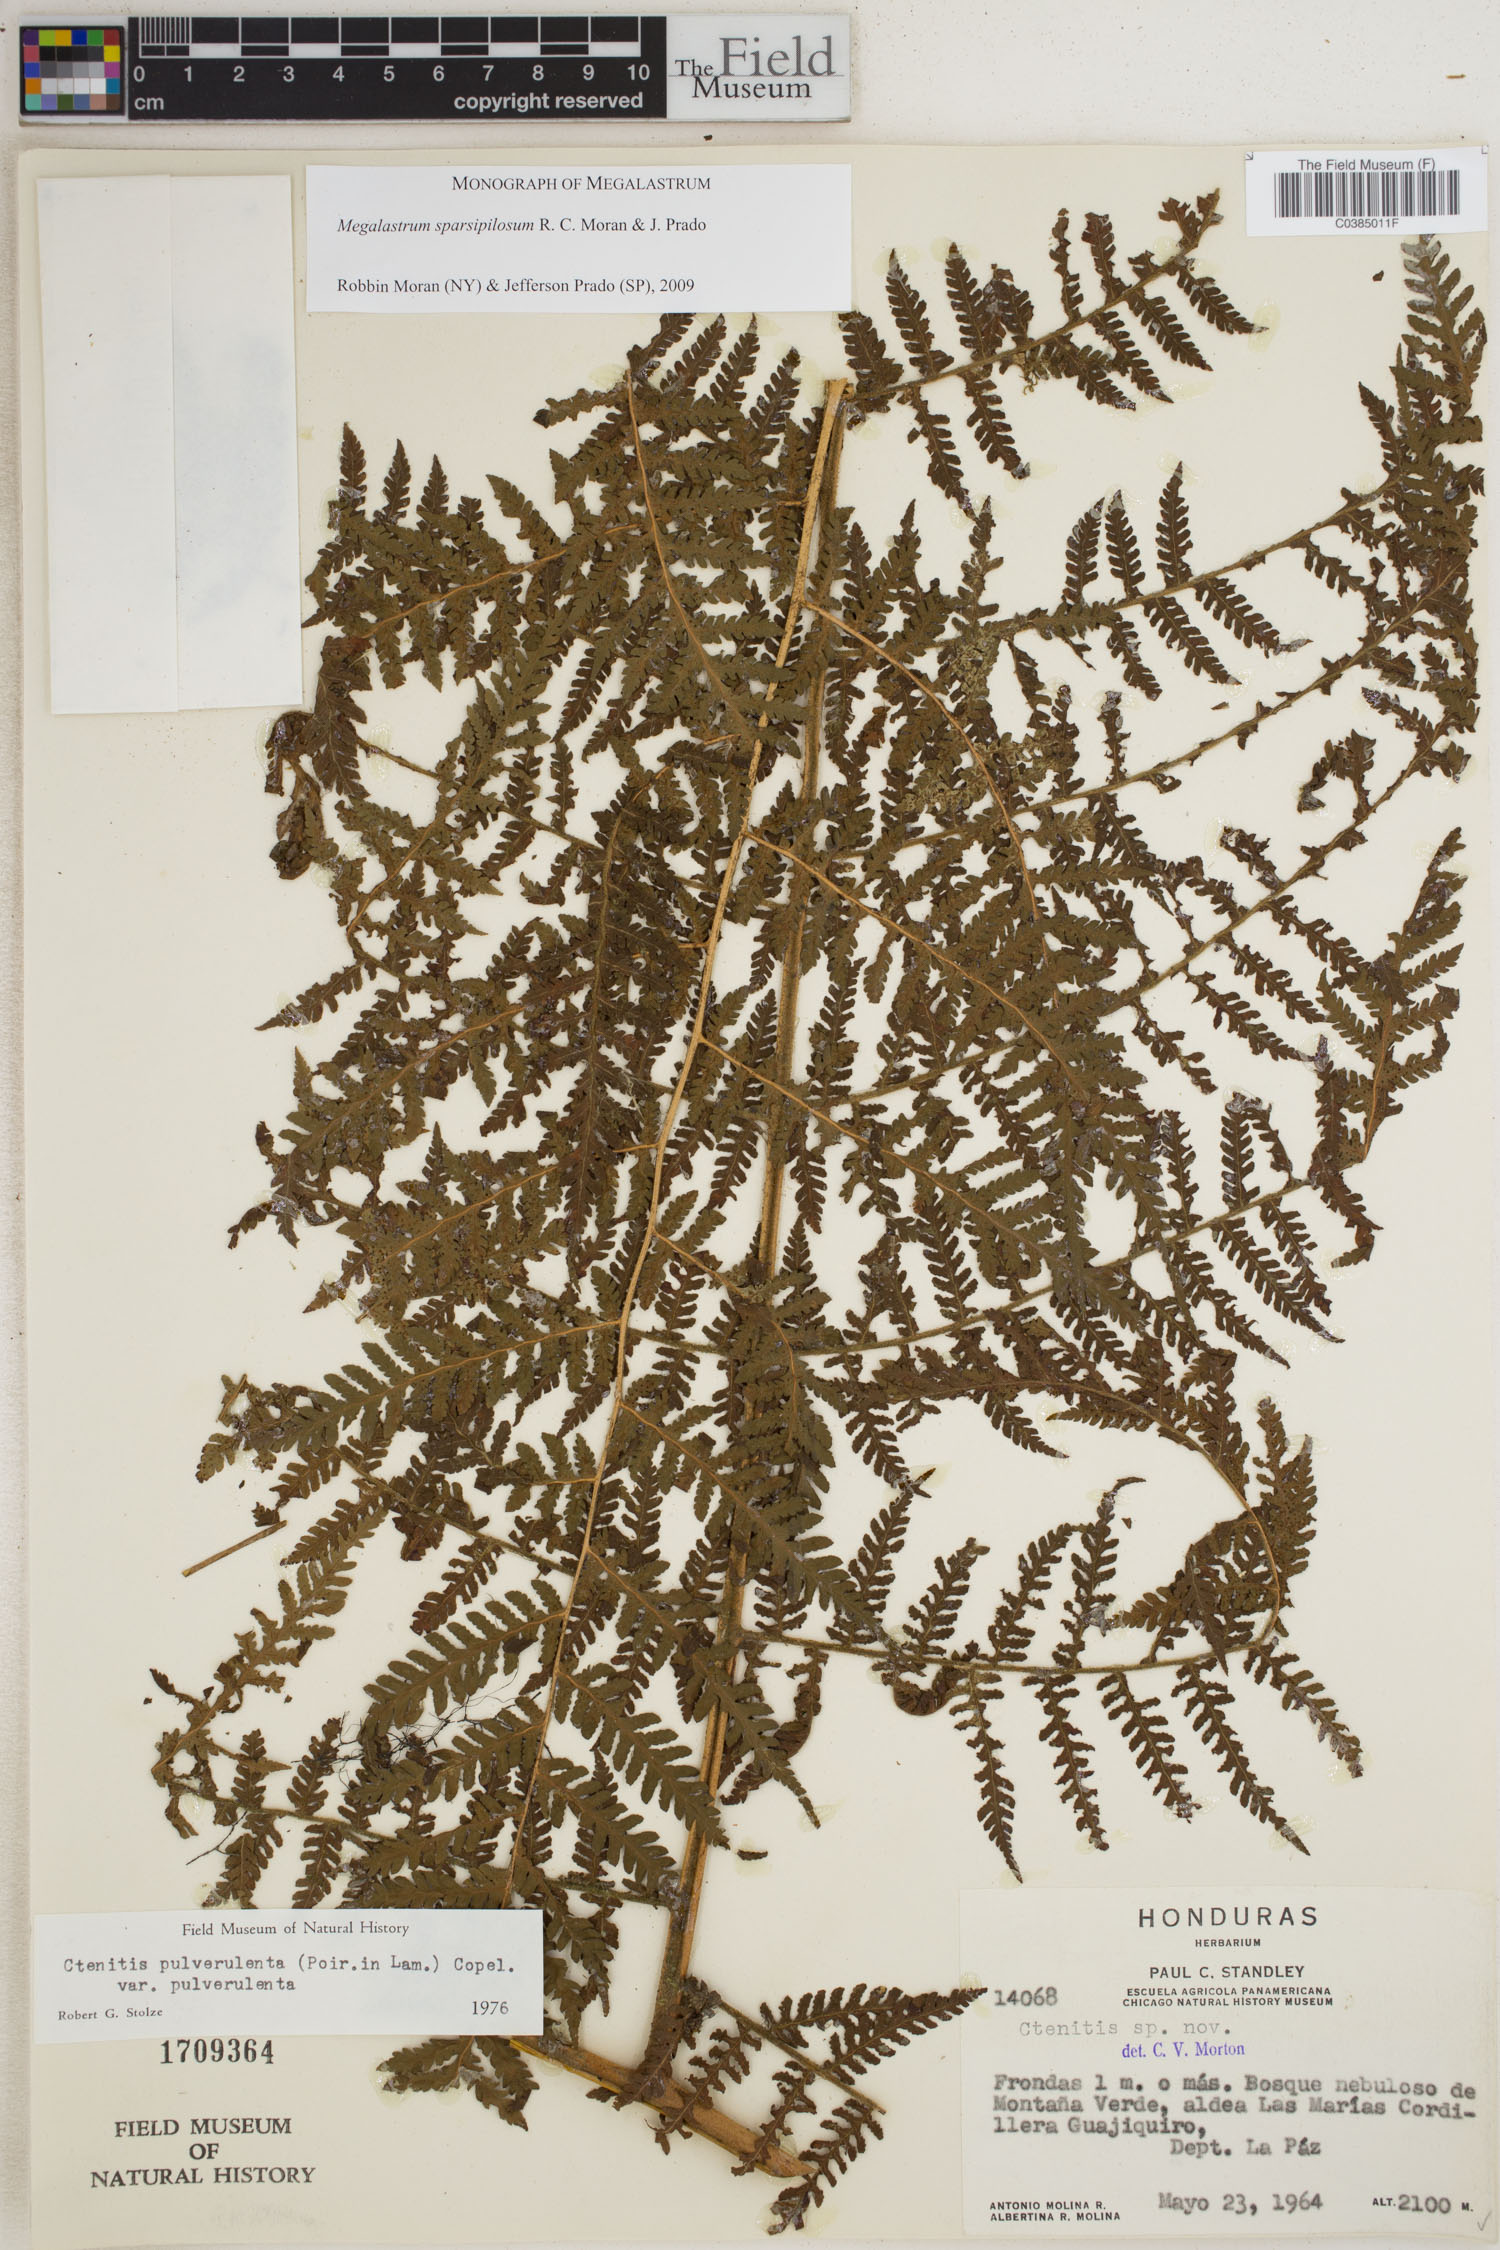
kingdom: Plantae
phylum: Tracheophyta
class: Polypodiopsida
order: Polypodiales
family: Dryopteridaceae
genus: Megalastrum
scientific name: Megalastrum sparsipilosum
